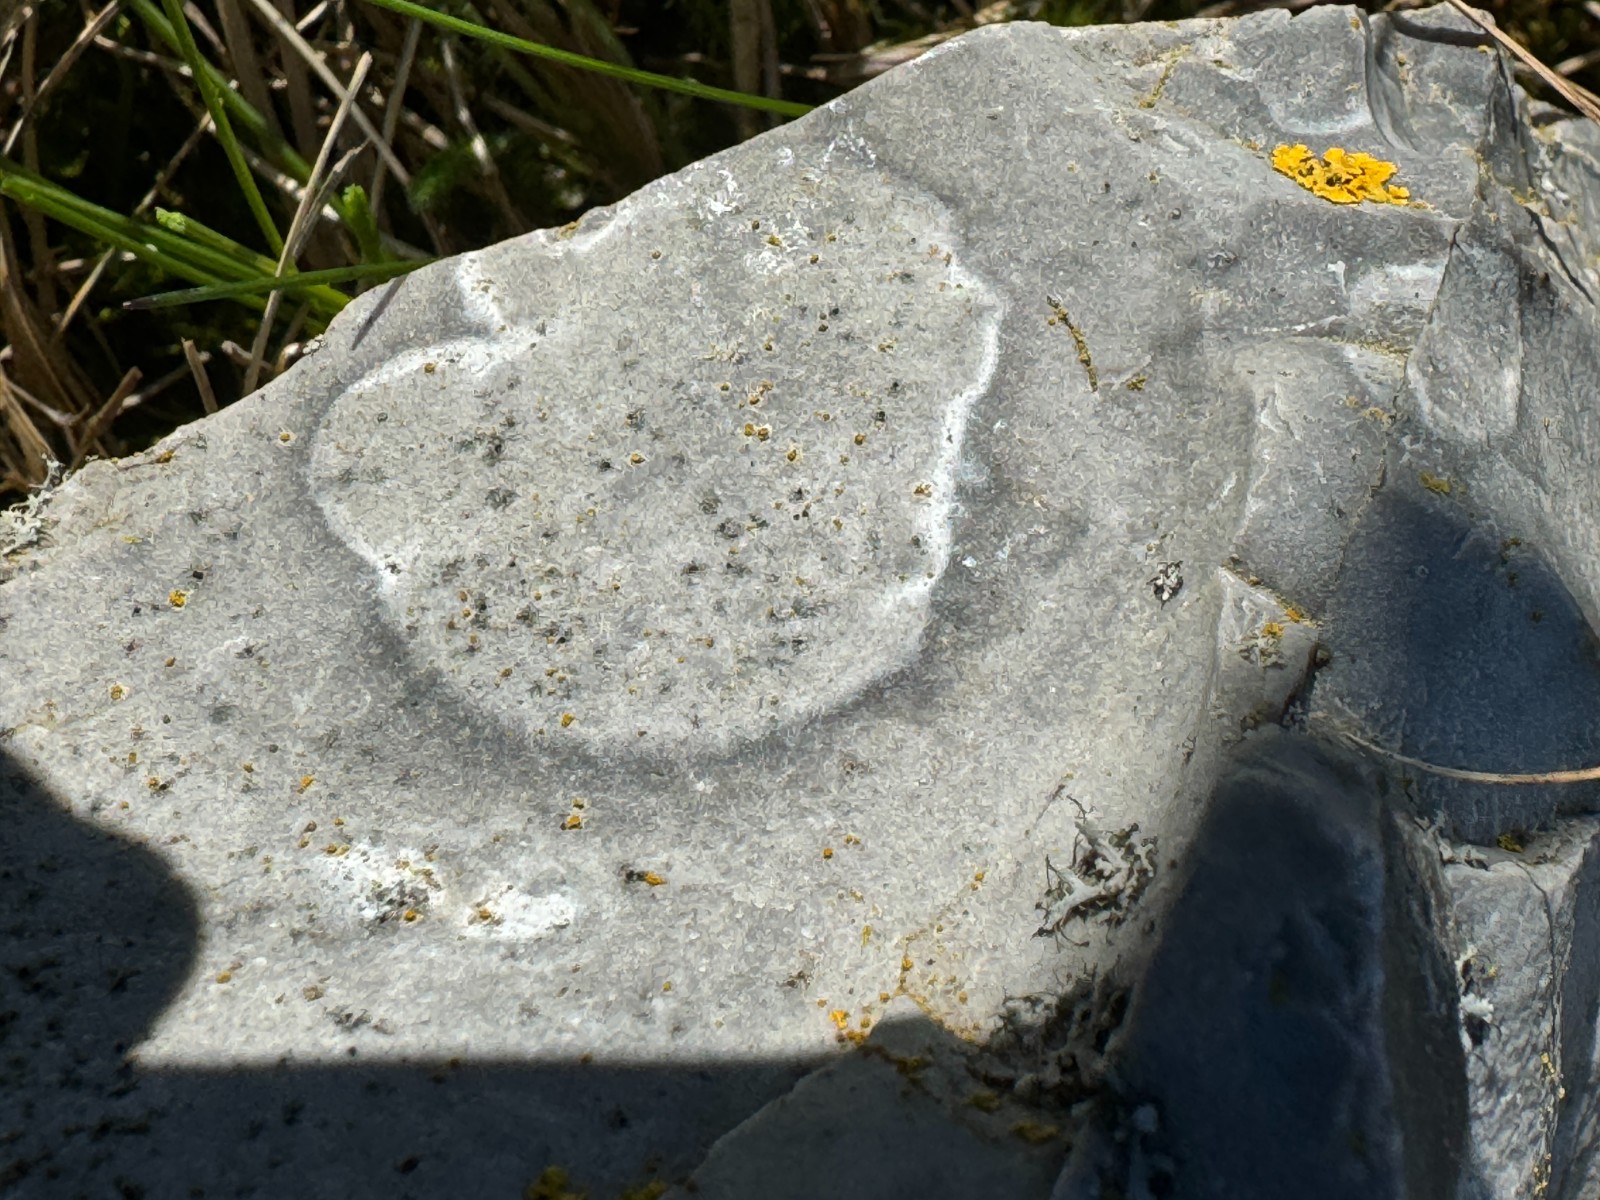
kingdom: Fungi
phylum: Ascomycota
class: Lecanoromycetes
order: Lecanorales
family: Parmeliaceae
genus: Lichen
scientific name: Lichen
